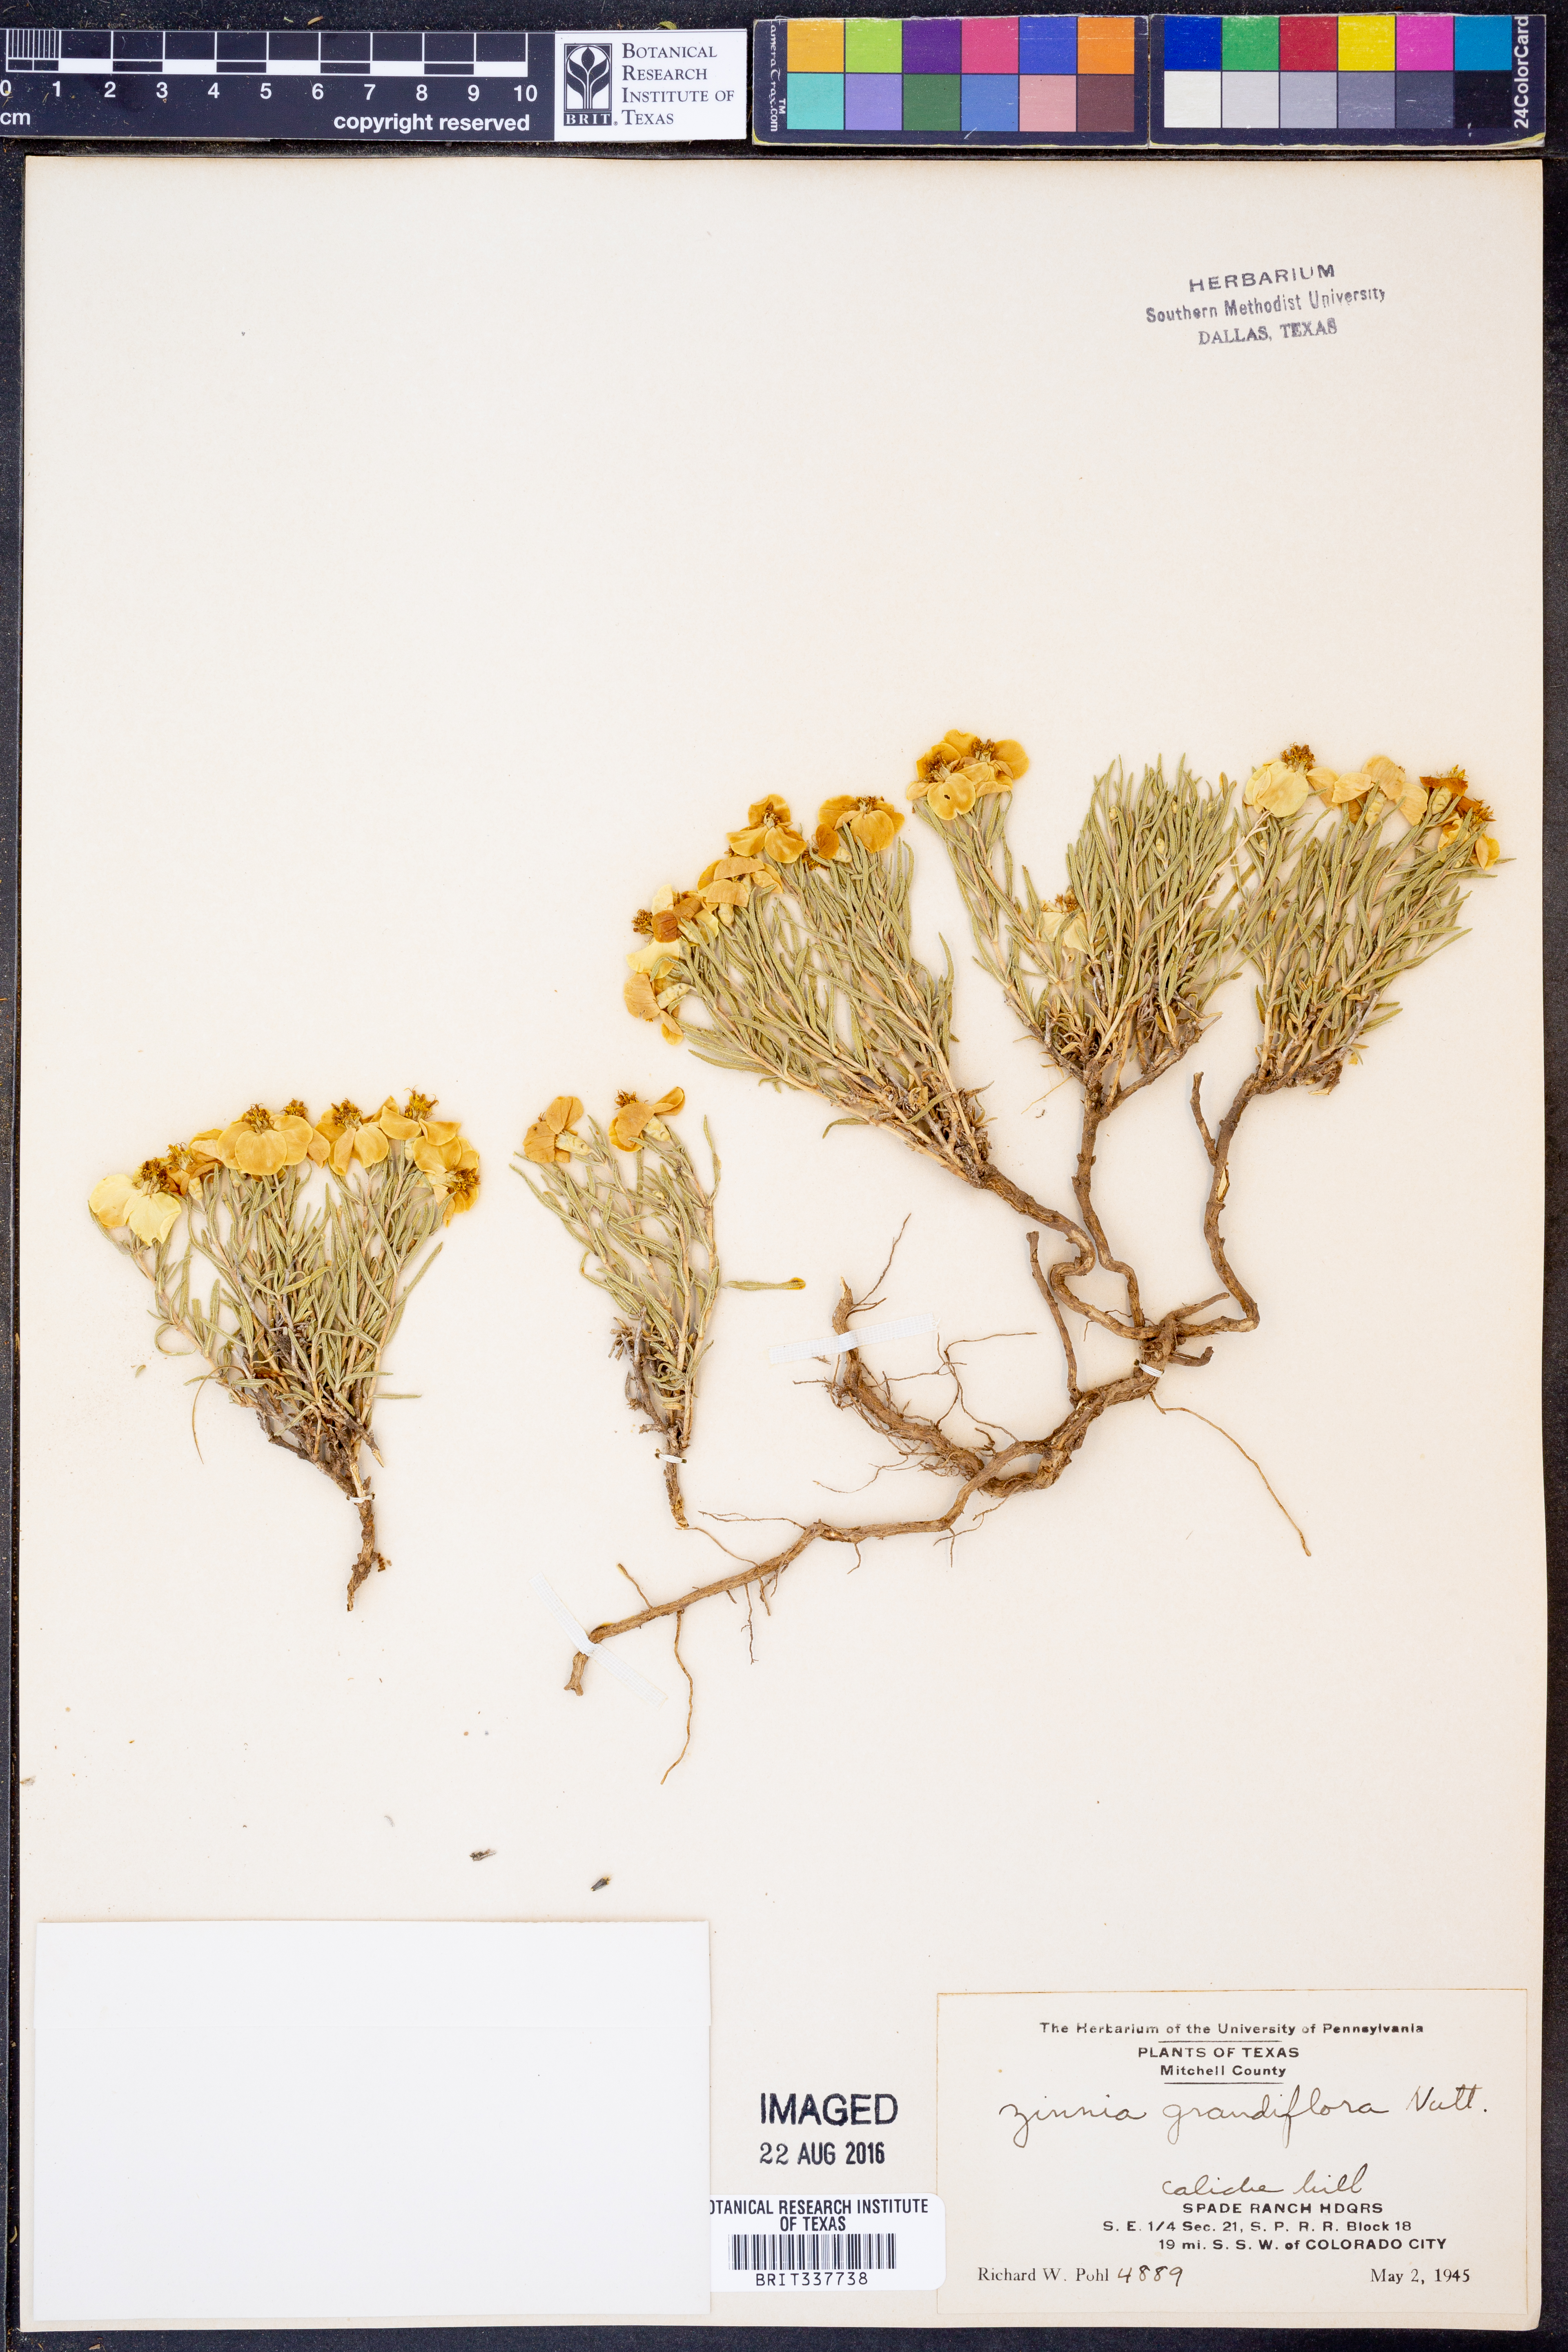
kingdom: Plantae
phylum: Tracheophyta
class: Magnoliopsida
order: Asterales
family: Asteraceae
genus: Zinnia
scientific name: Zinnia grandiflora
